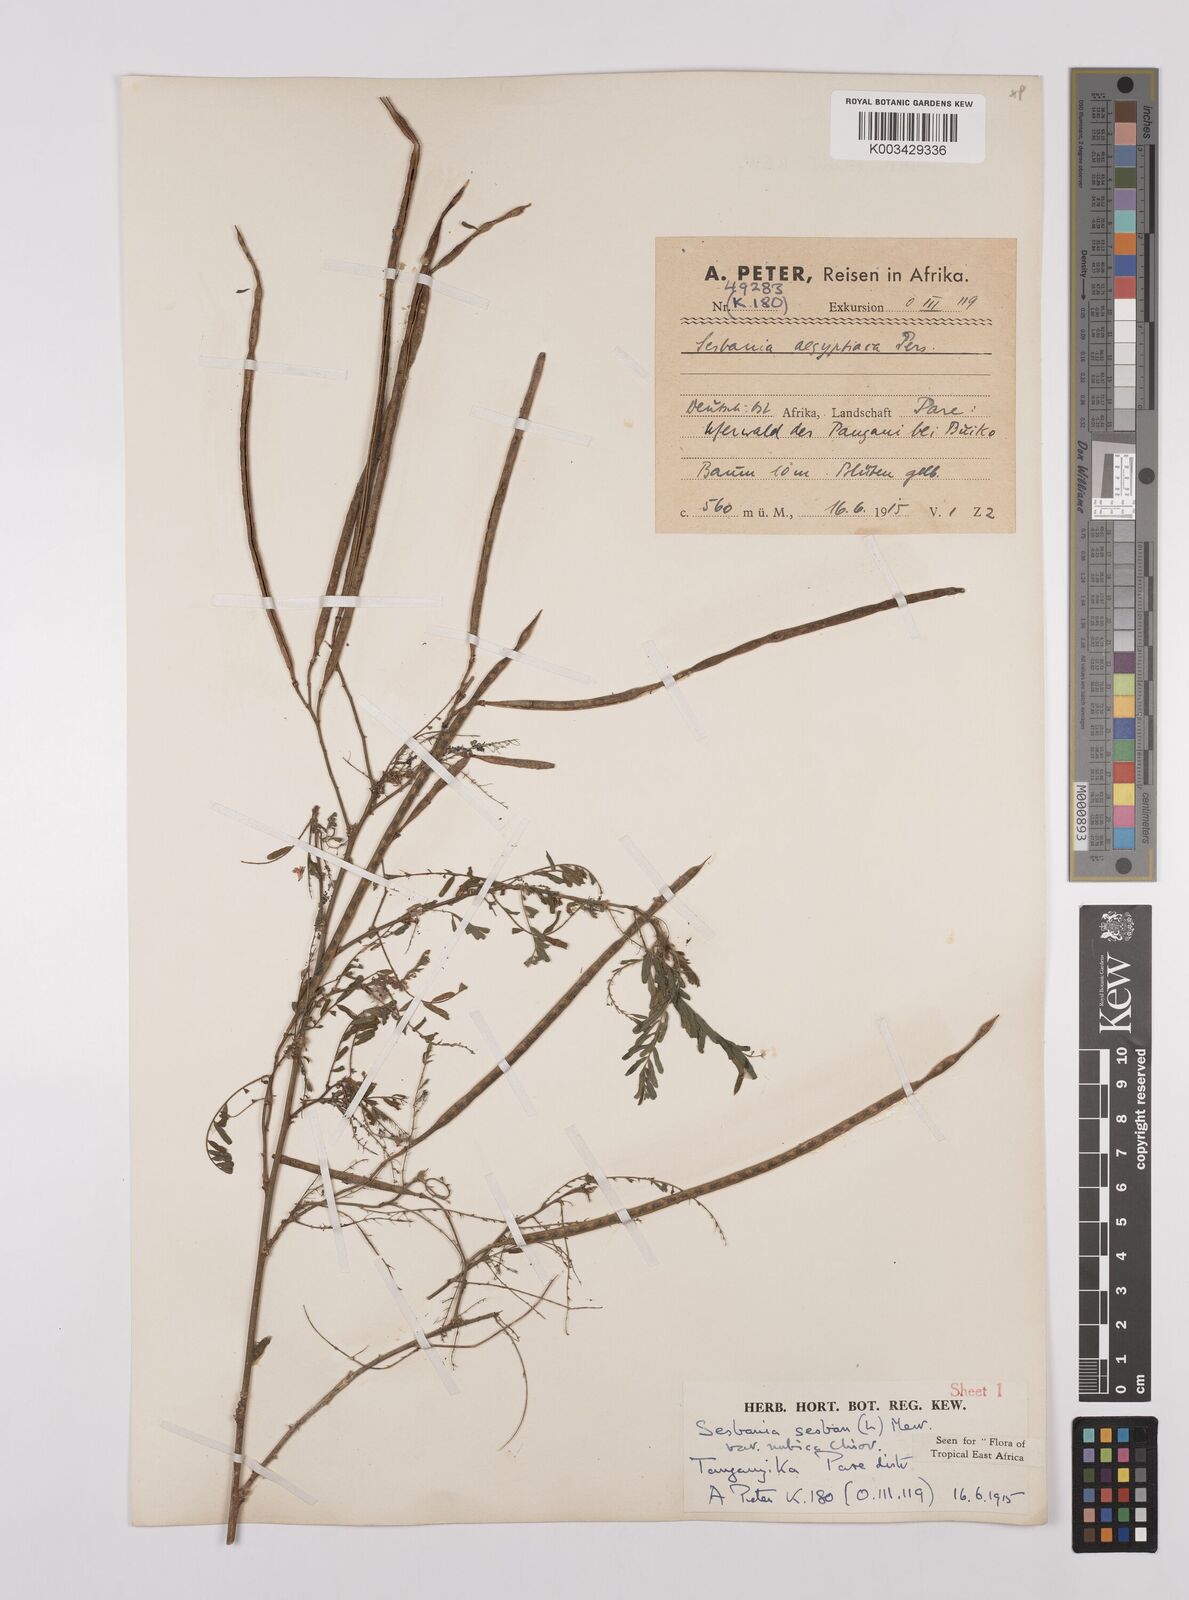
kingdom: Plantae
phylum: Tracheophyta
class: Magnoliopsida
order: Fabales
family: Fabaceae
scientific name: Fabaceae
